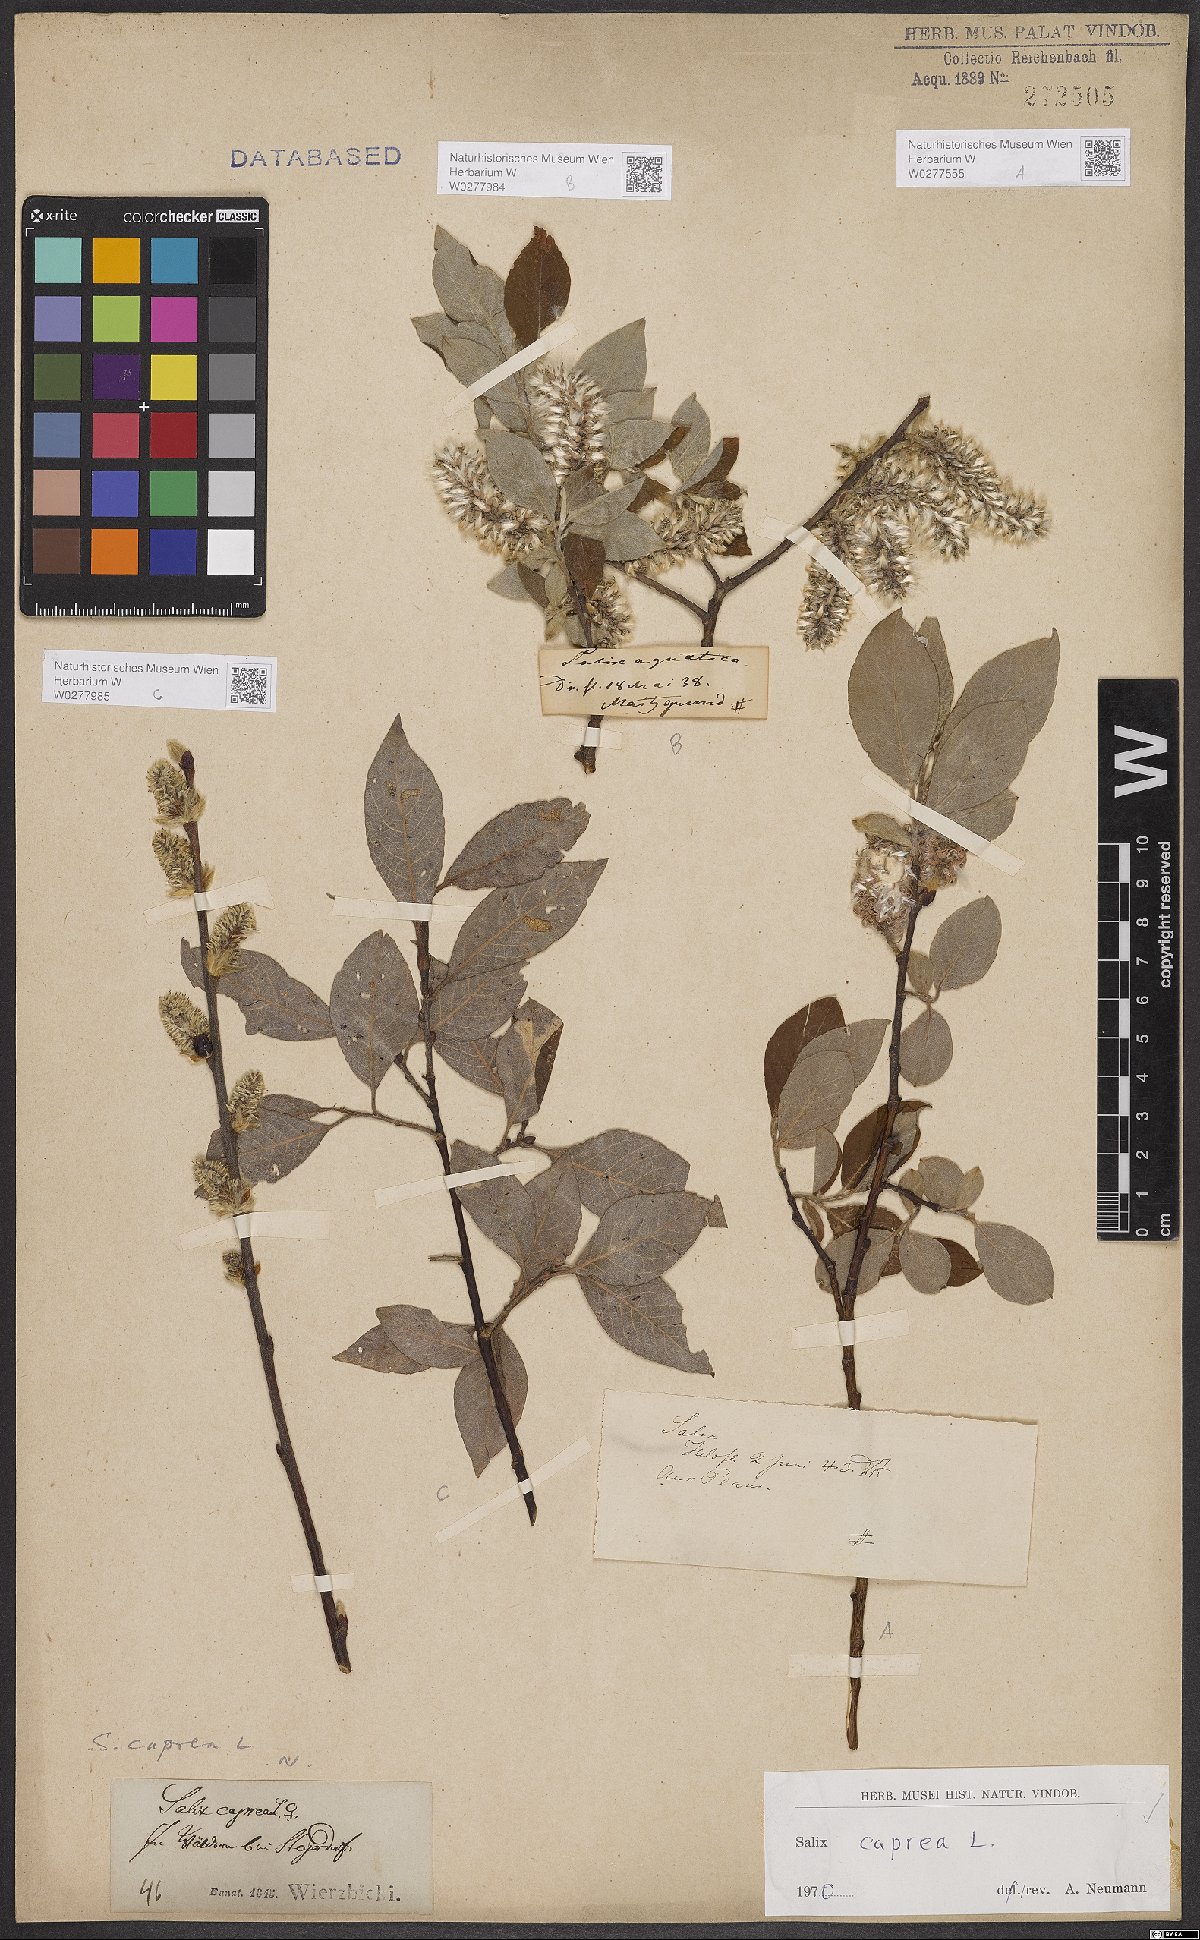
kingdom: Plantae
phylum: Tracheophyta
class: Magnoliopsida
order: Malpighiales
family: Salicaceae
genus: Salix
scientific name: Salix caprea
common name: Goat willow
